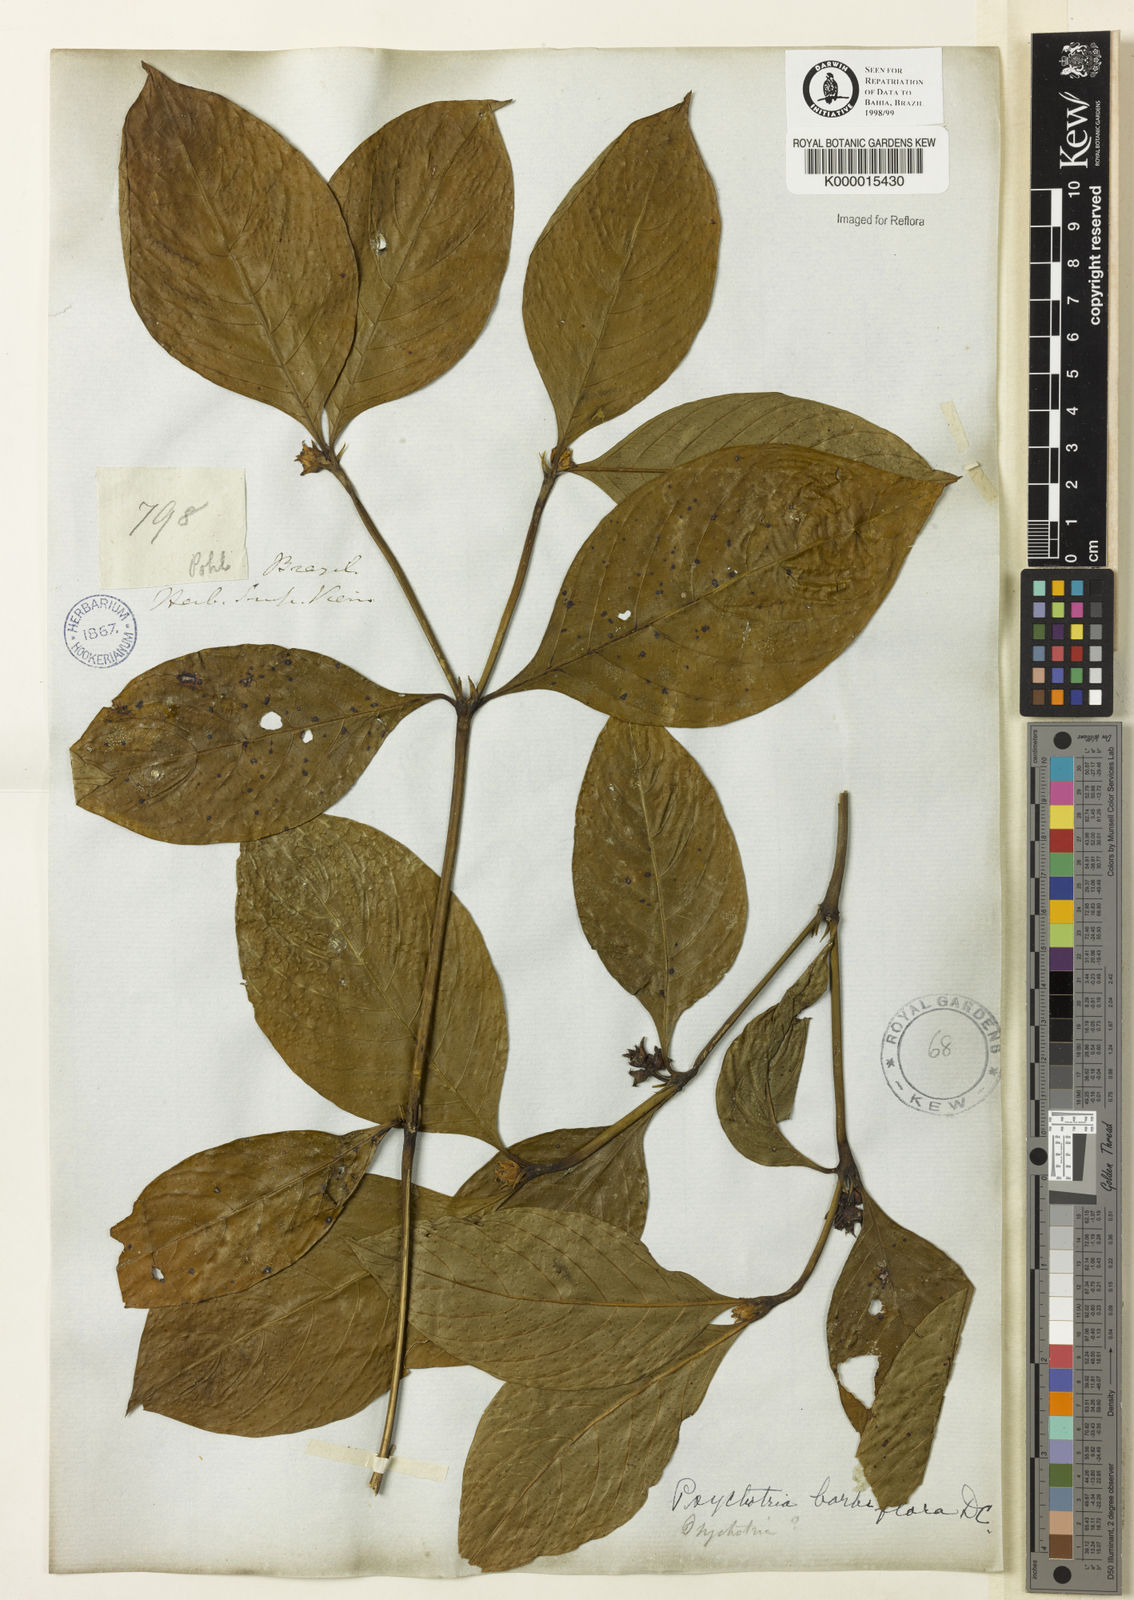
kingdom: Plantae
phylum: Tracheophyta
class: Magnoliopsida
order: Gentianales
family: Rubiaceae
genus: Palicourea
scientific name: Palicourea hoffmannseggiana
